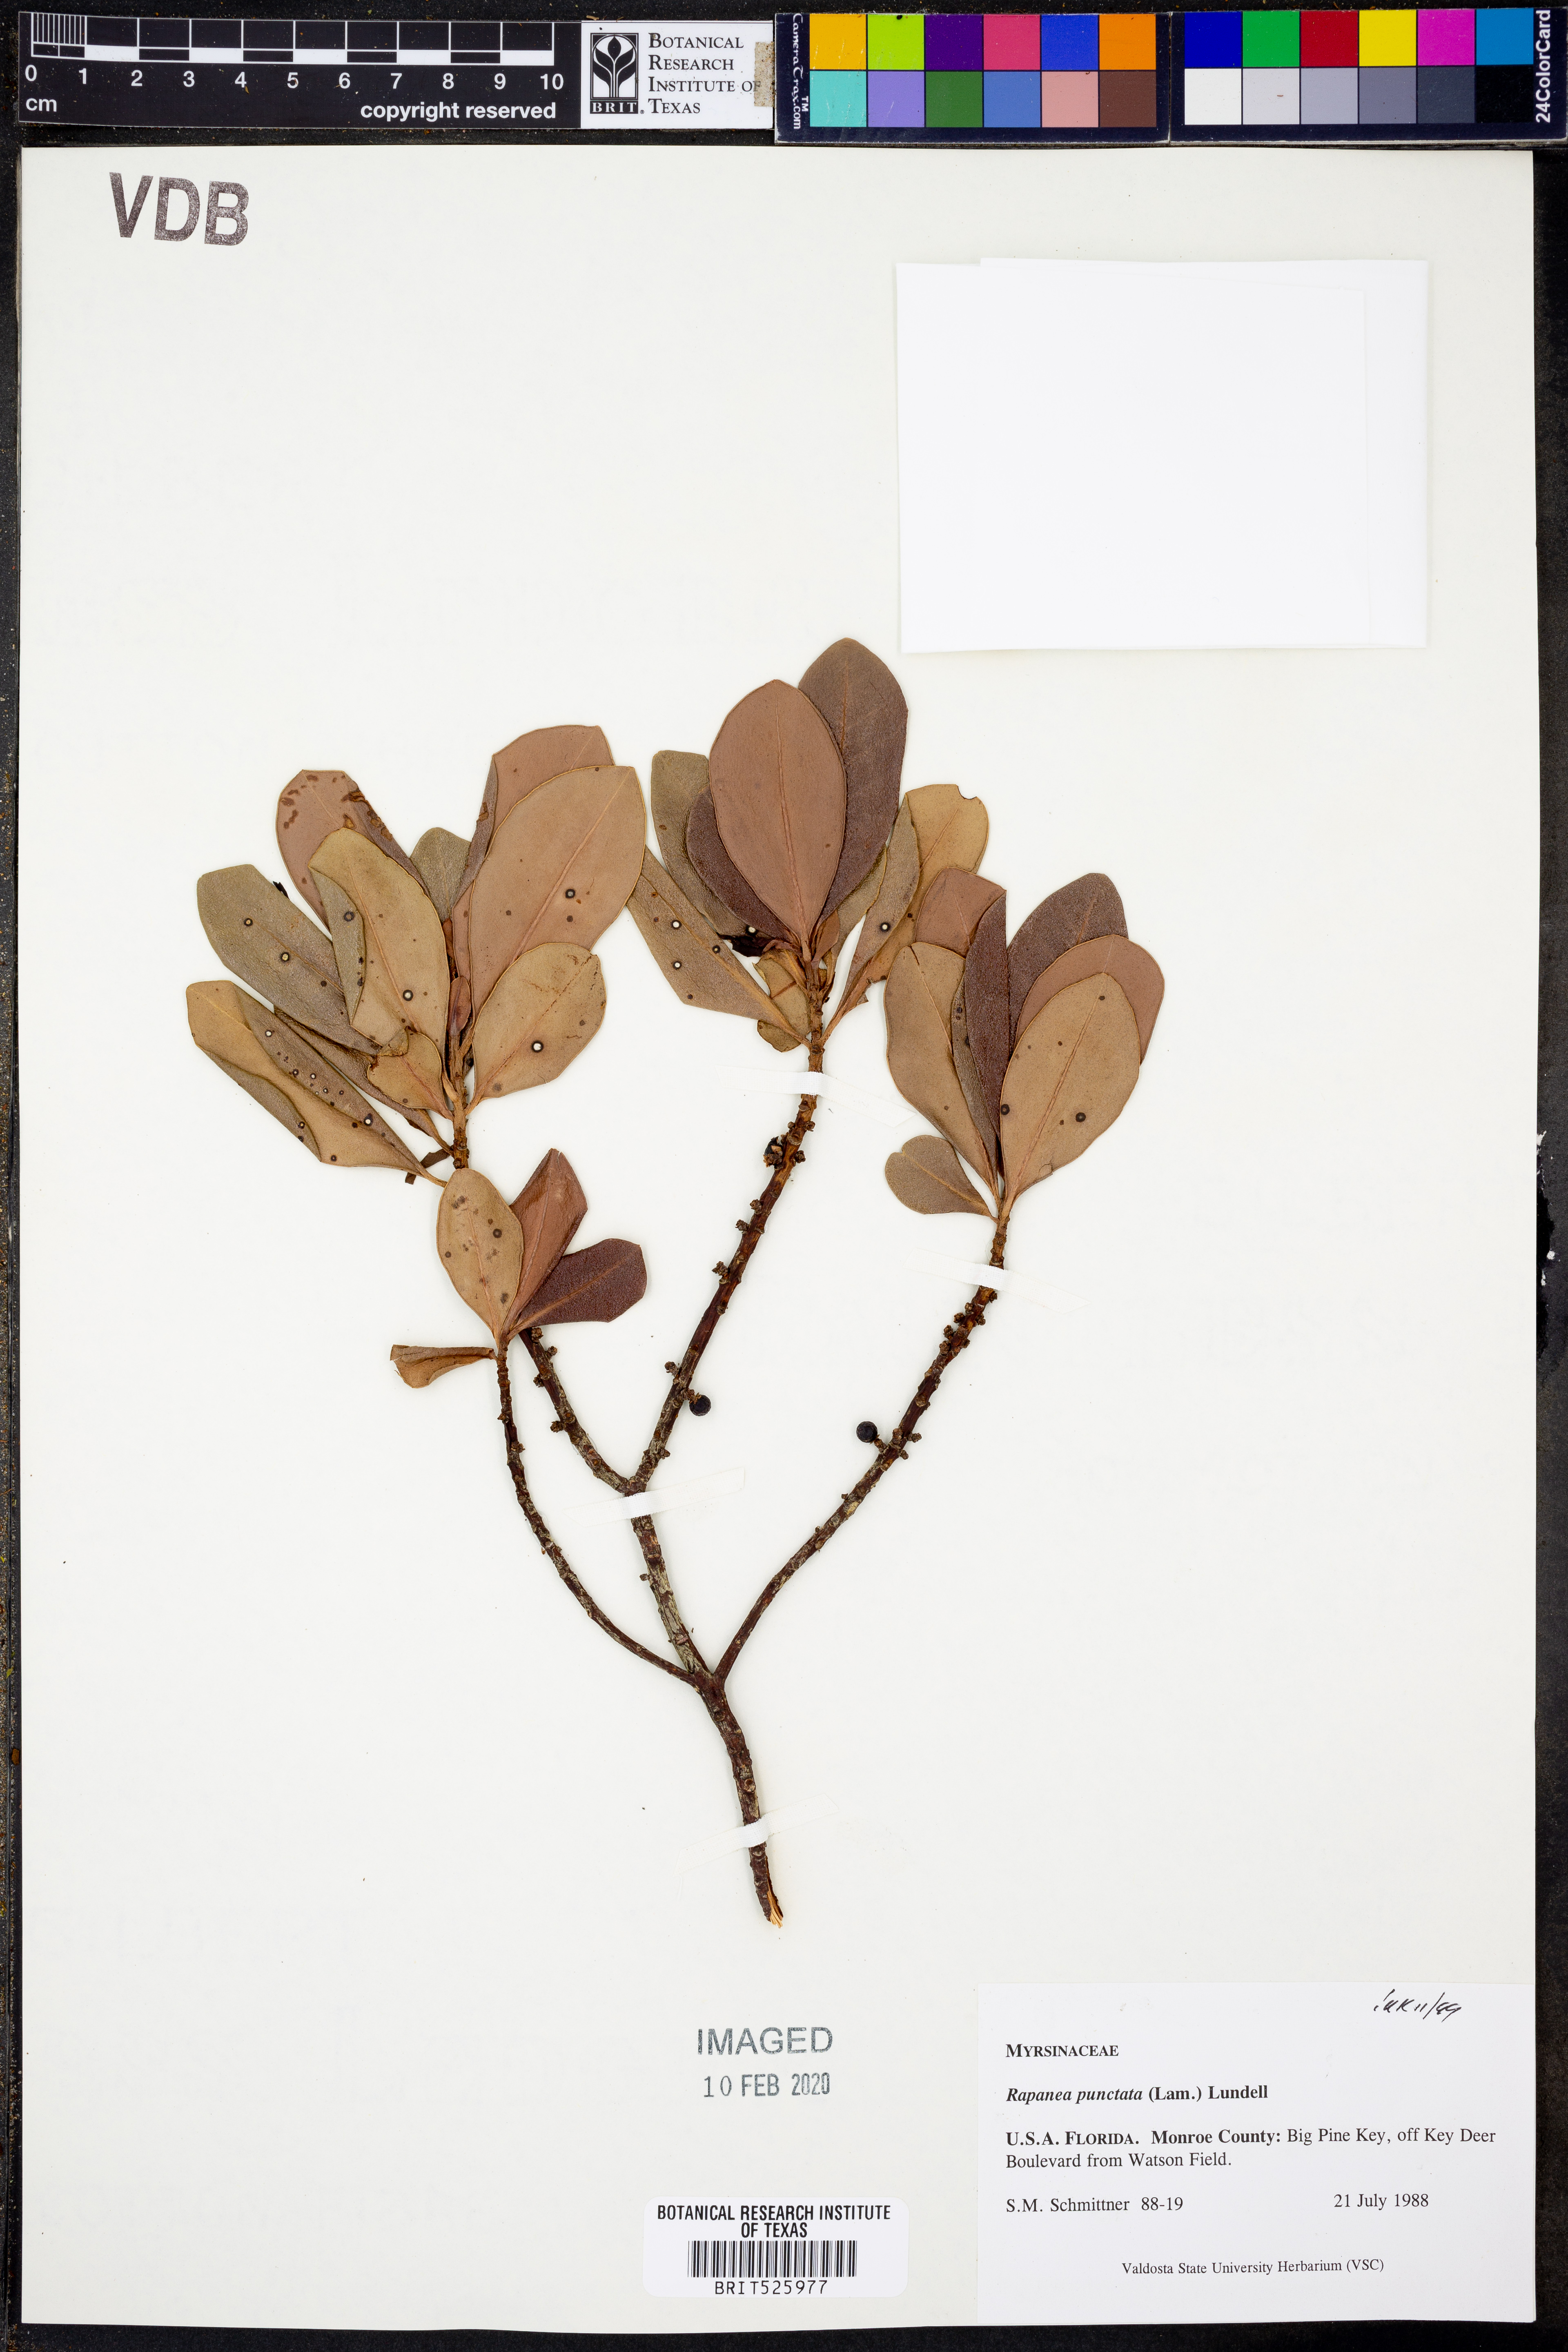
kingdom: Plantae
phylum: Tracheophyta
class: Magnoliopsida
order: Ericales
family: Primulaceae
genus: Myrsine
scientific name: Myrsine floridana
